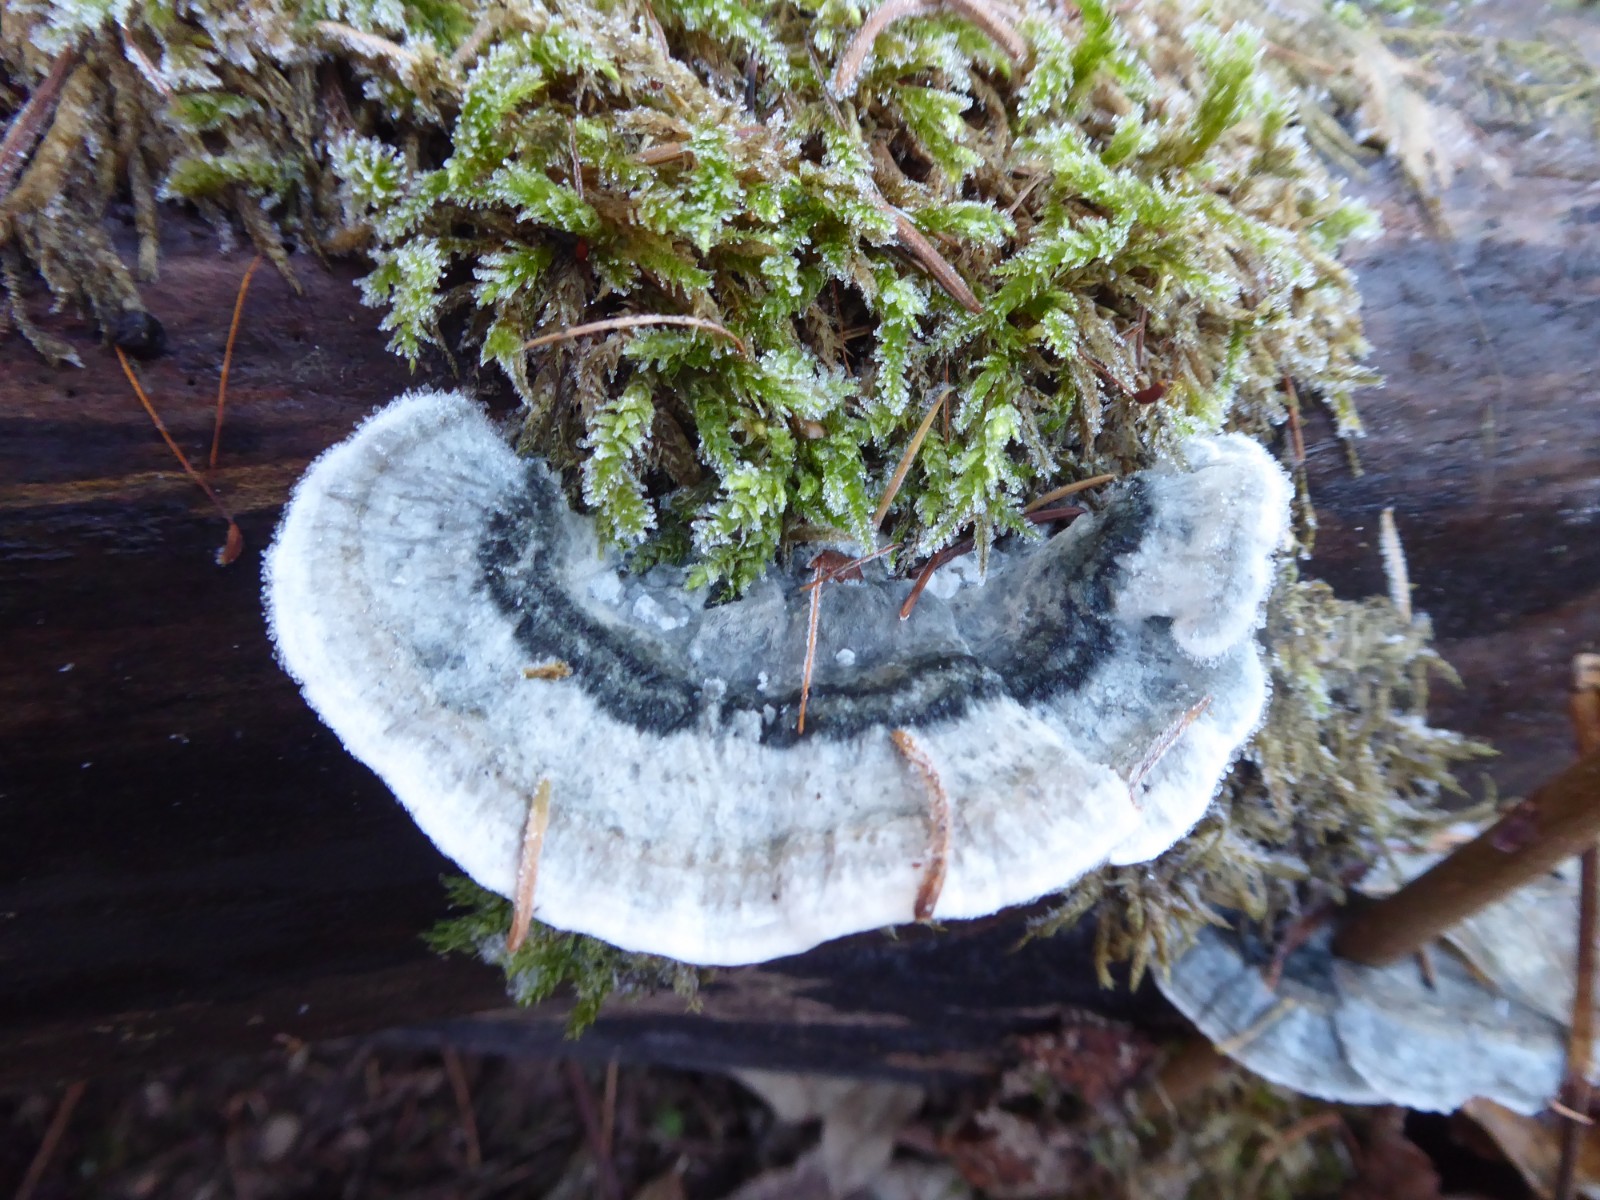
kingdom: Fungi
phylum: Basidiomycota
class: Agaricomycetes
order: Polyporales
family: Dacryobolaceae
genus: Postia
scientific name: Postia
